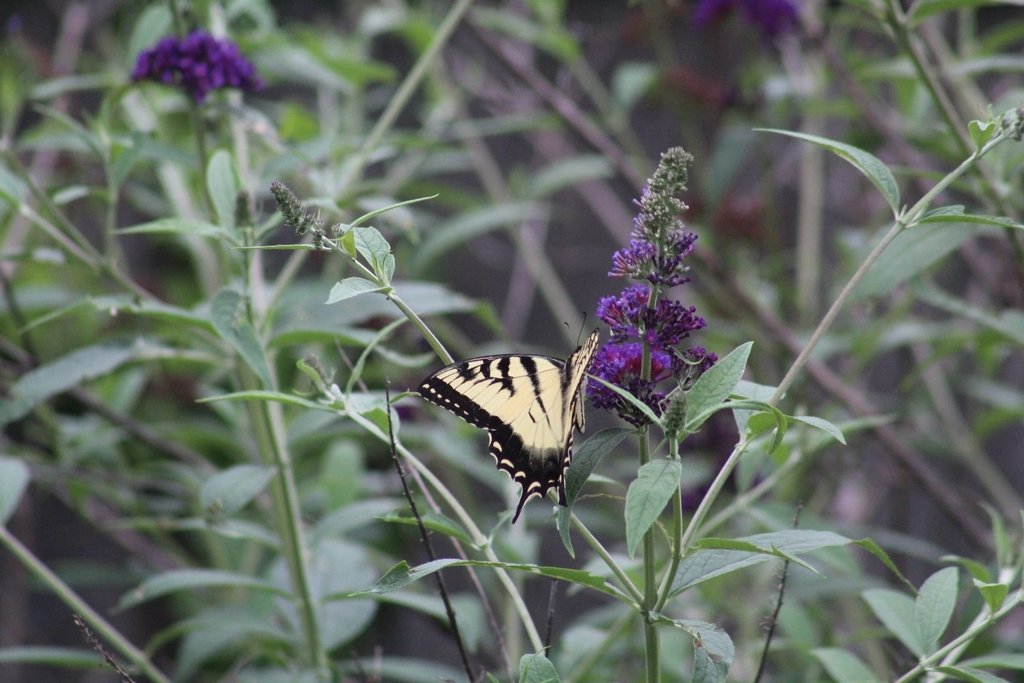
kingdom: Animalia
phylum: Arthropoda
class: Insecta
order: Lepidoptera
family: Papilionidae
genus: Pterourus
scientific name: Pterourus glaucus
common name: Eastern Tiger Swallowtail
